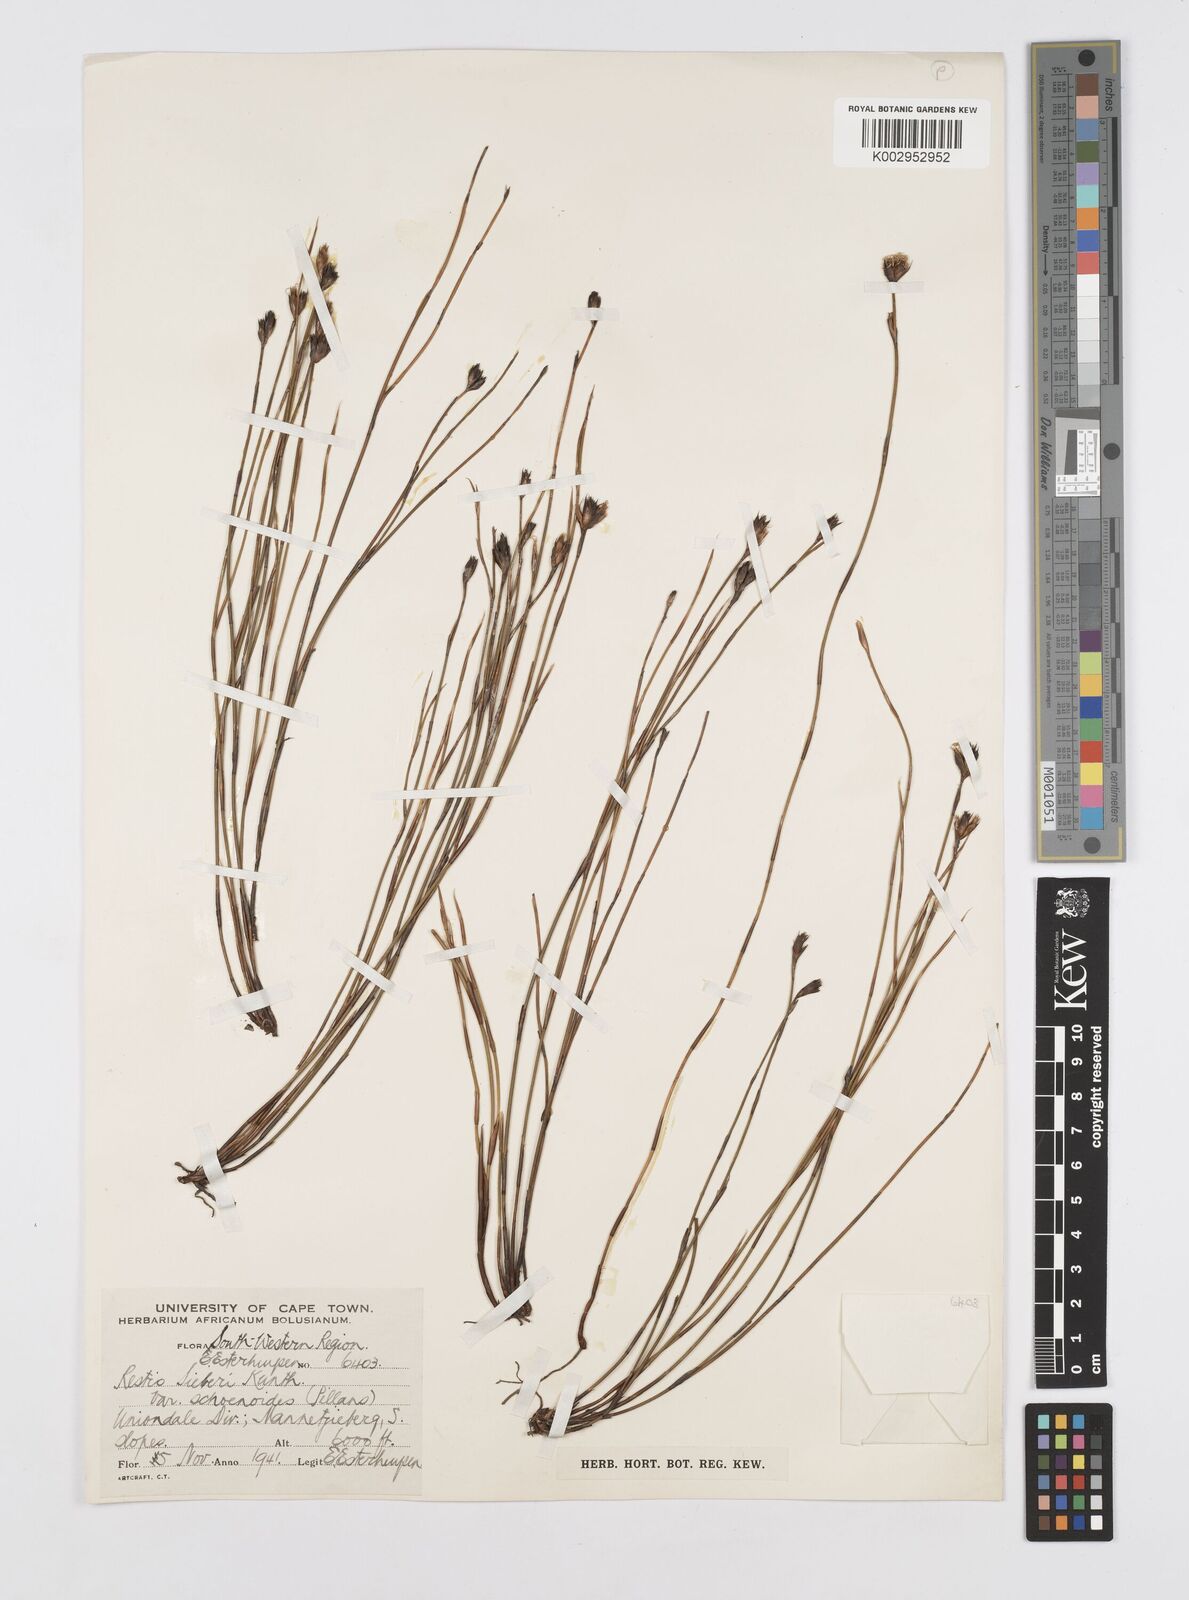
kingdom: Plantae
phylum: Tracheophyta
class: Liliopsida
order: Poales
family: Restionaceae
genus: Restio
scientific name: Restio schoenoides
